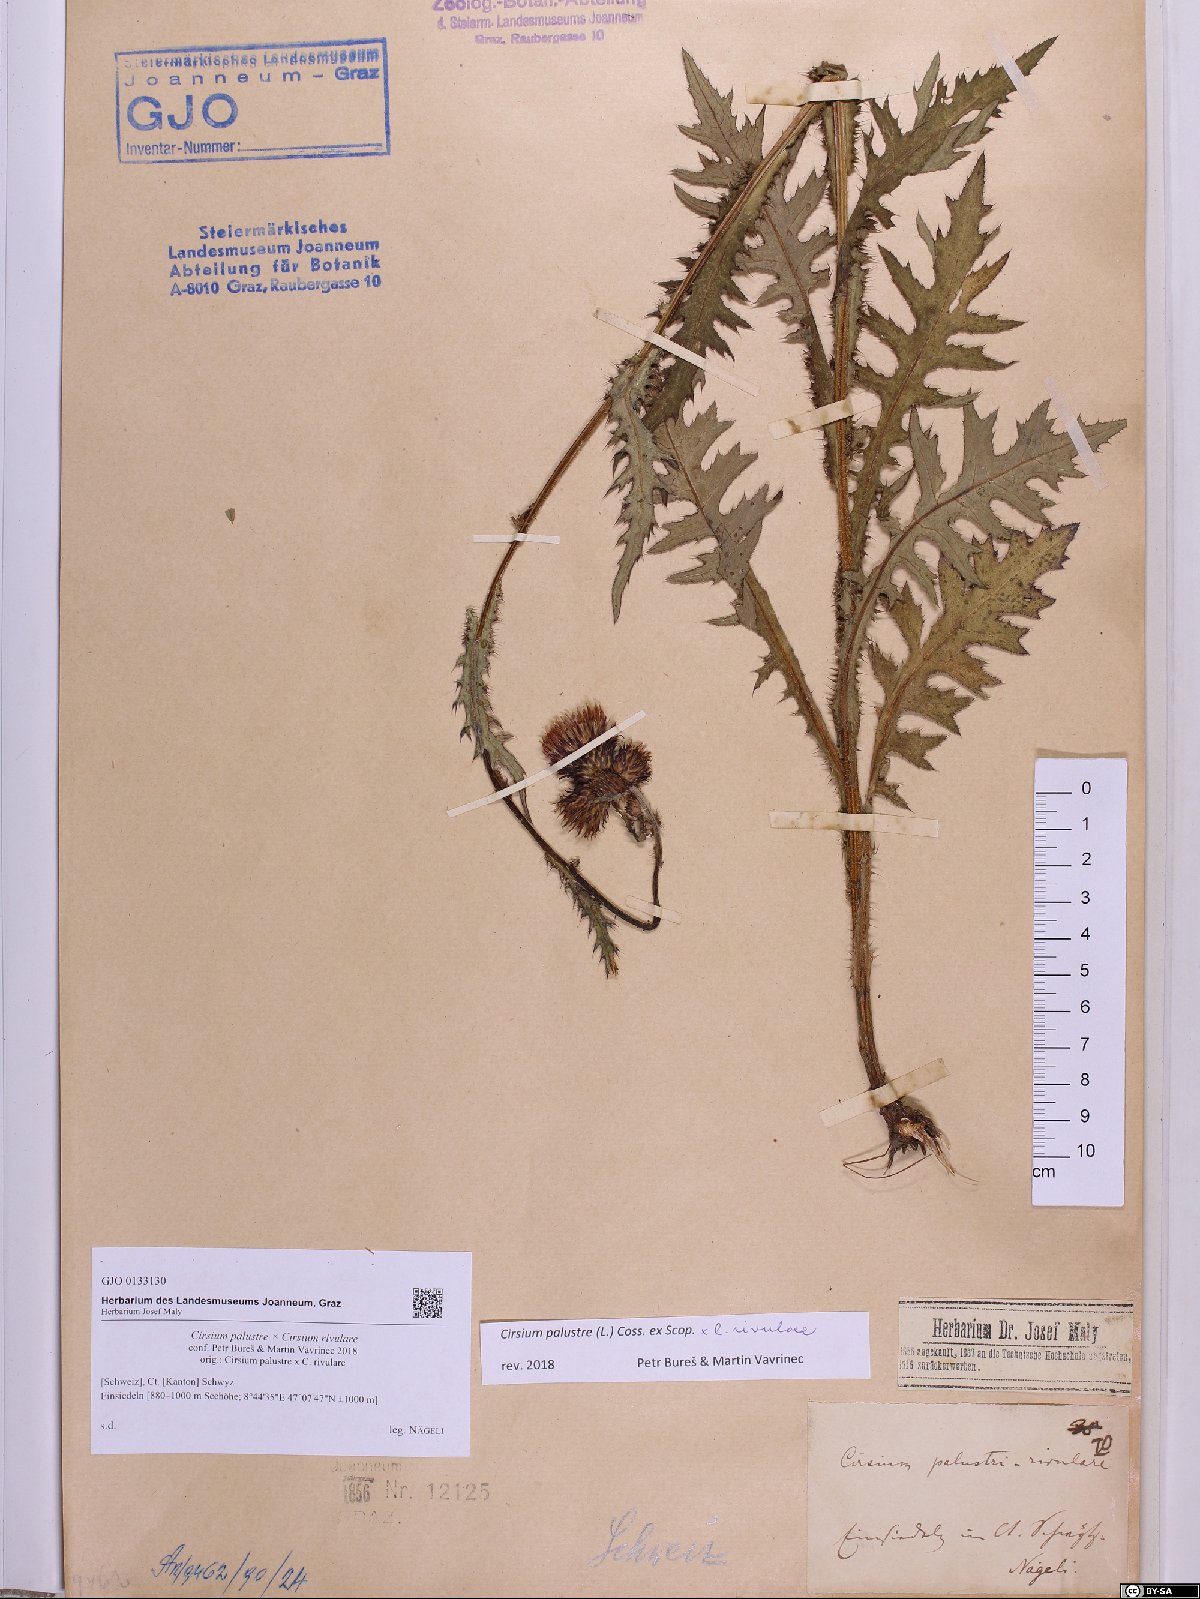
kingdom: Plantae
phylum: Tracheophyta
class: Magnoliopsida
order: Asterales
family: Asteraceae
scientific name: Asteraceae
